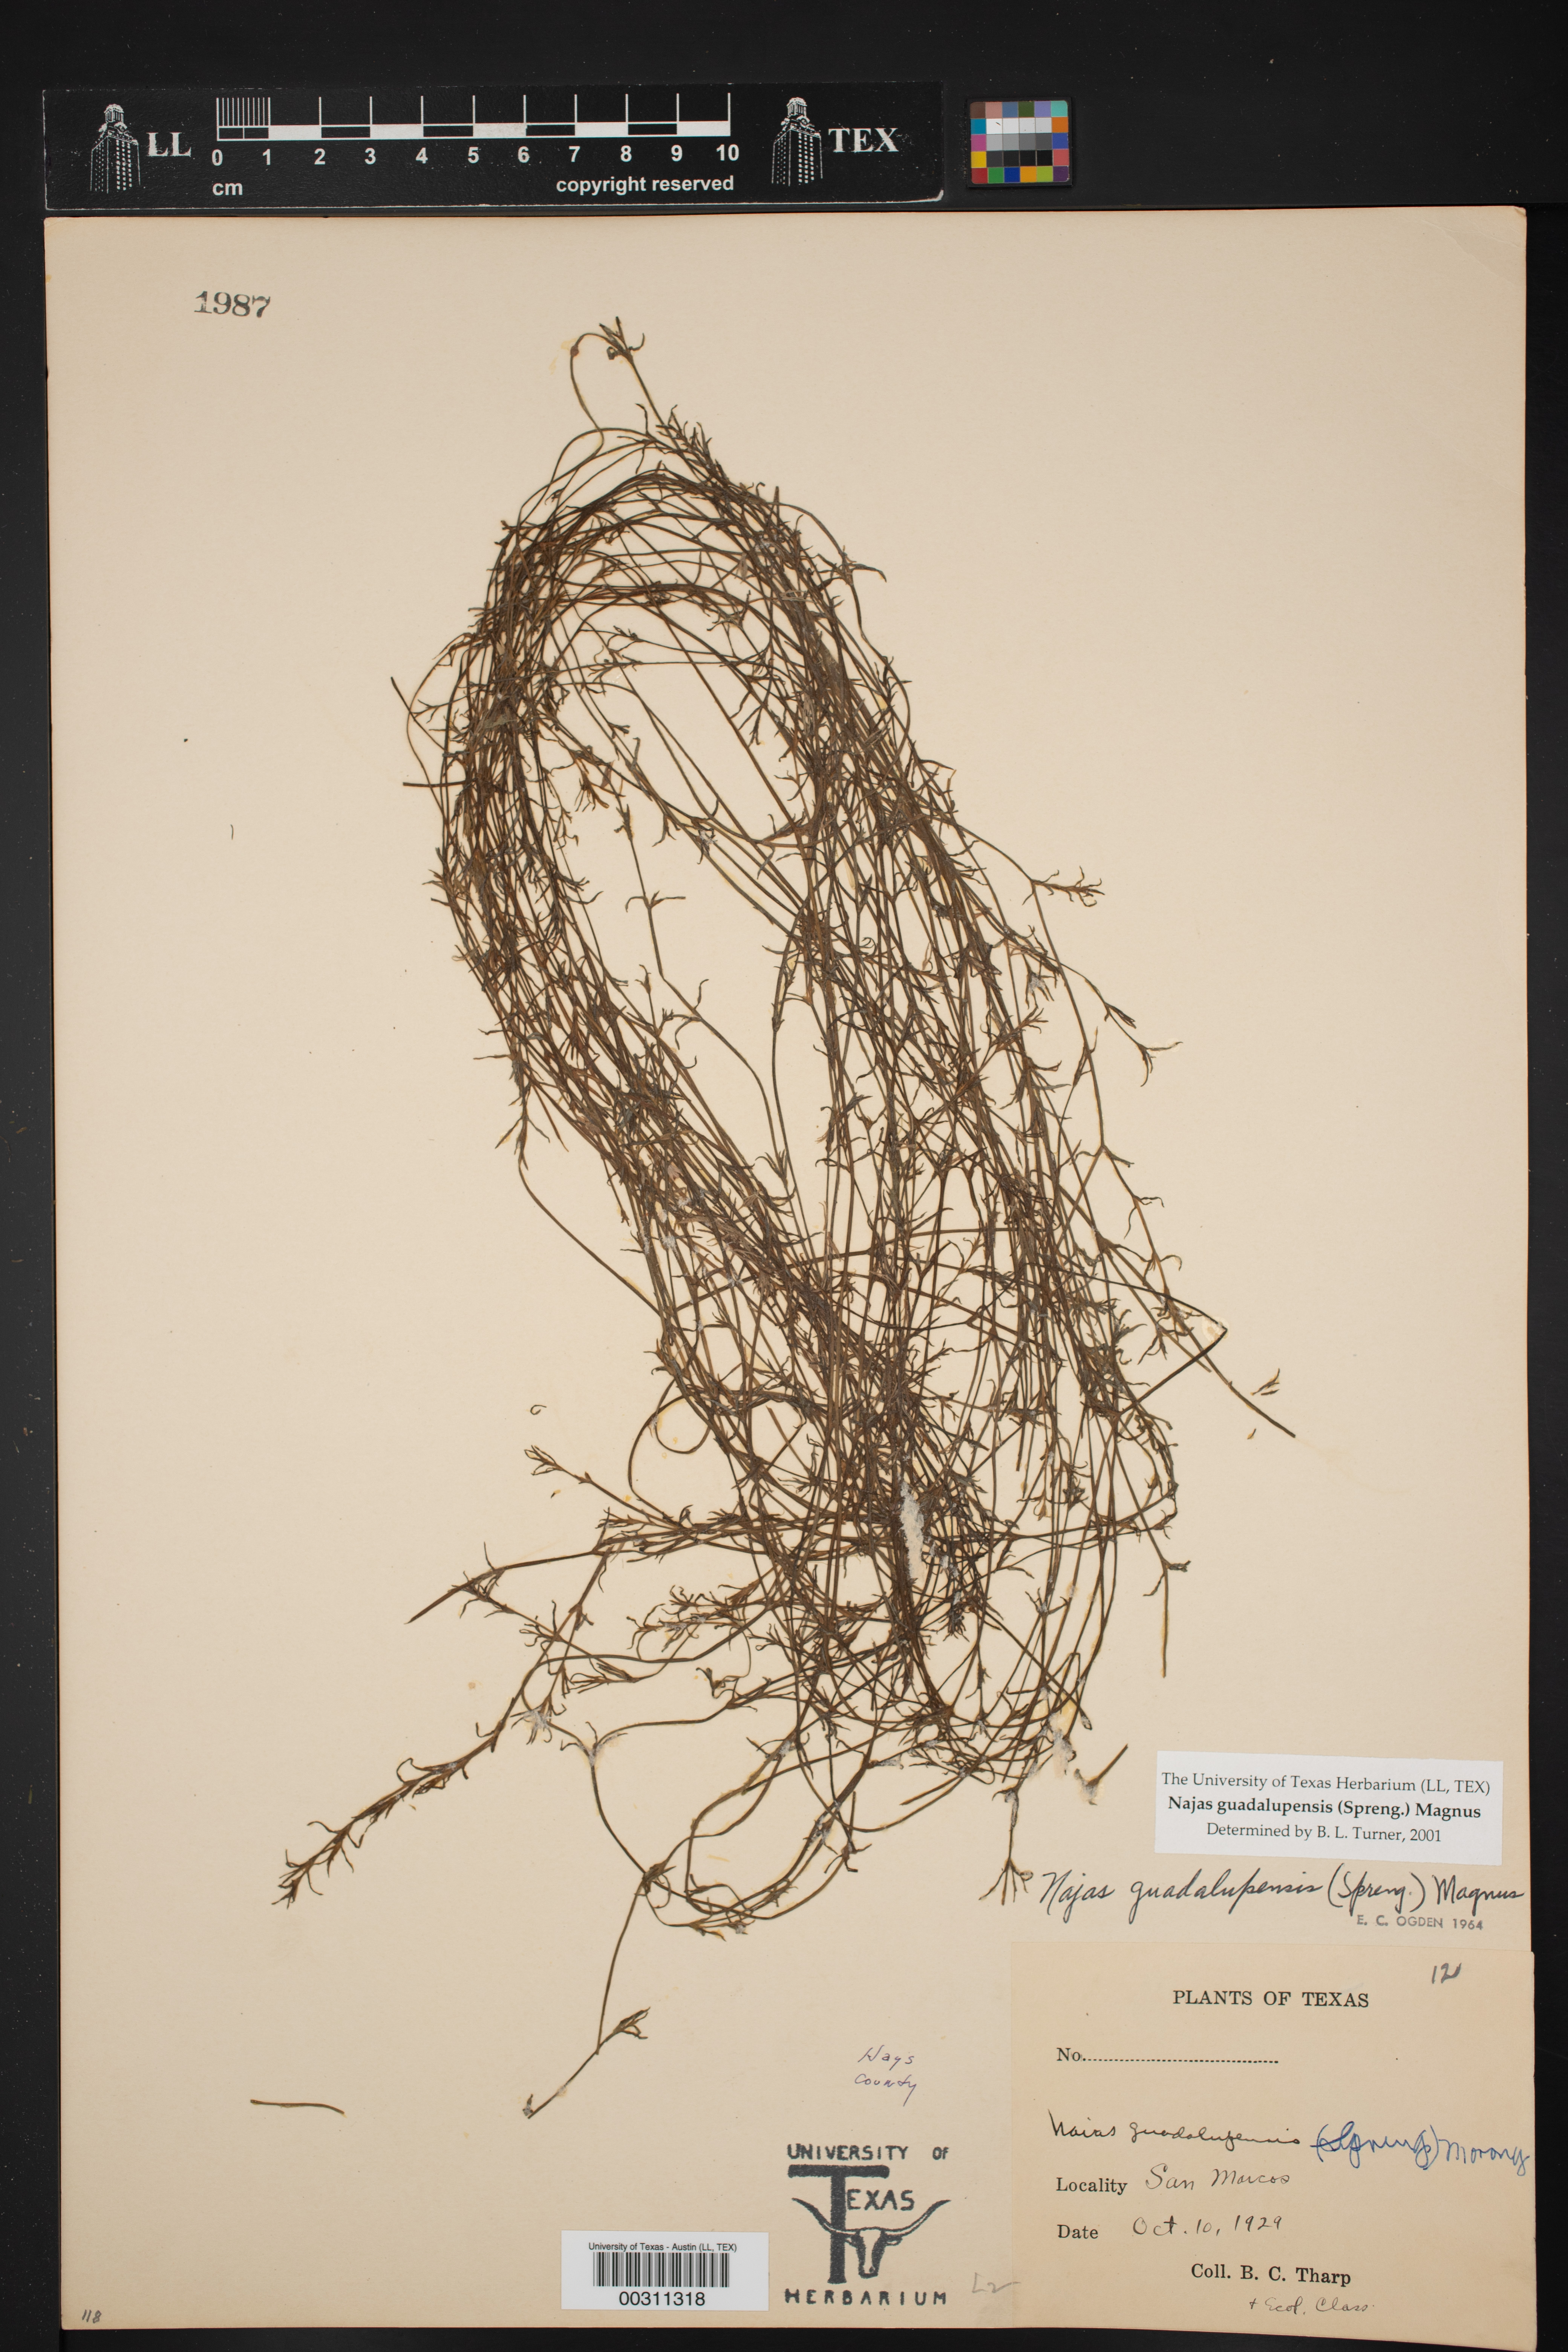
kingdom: Plantae
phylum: Tracheophyta
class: Liliopsida
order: Alismatales
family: Hydrocharitaceae
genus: Najas
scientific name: Najas guadalupensis
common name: Southern naiad
